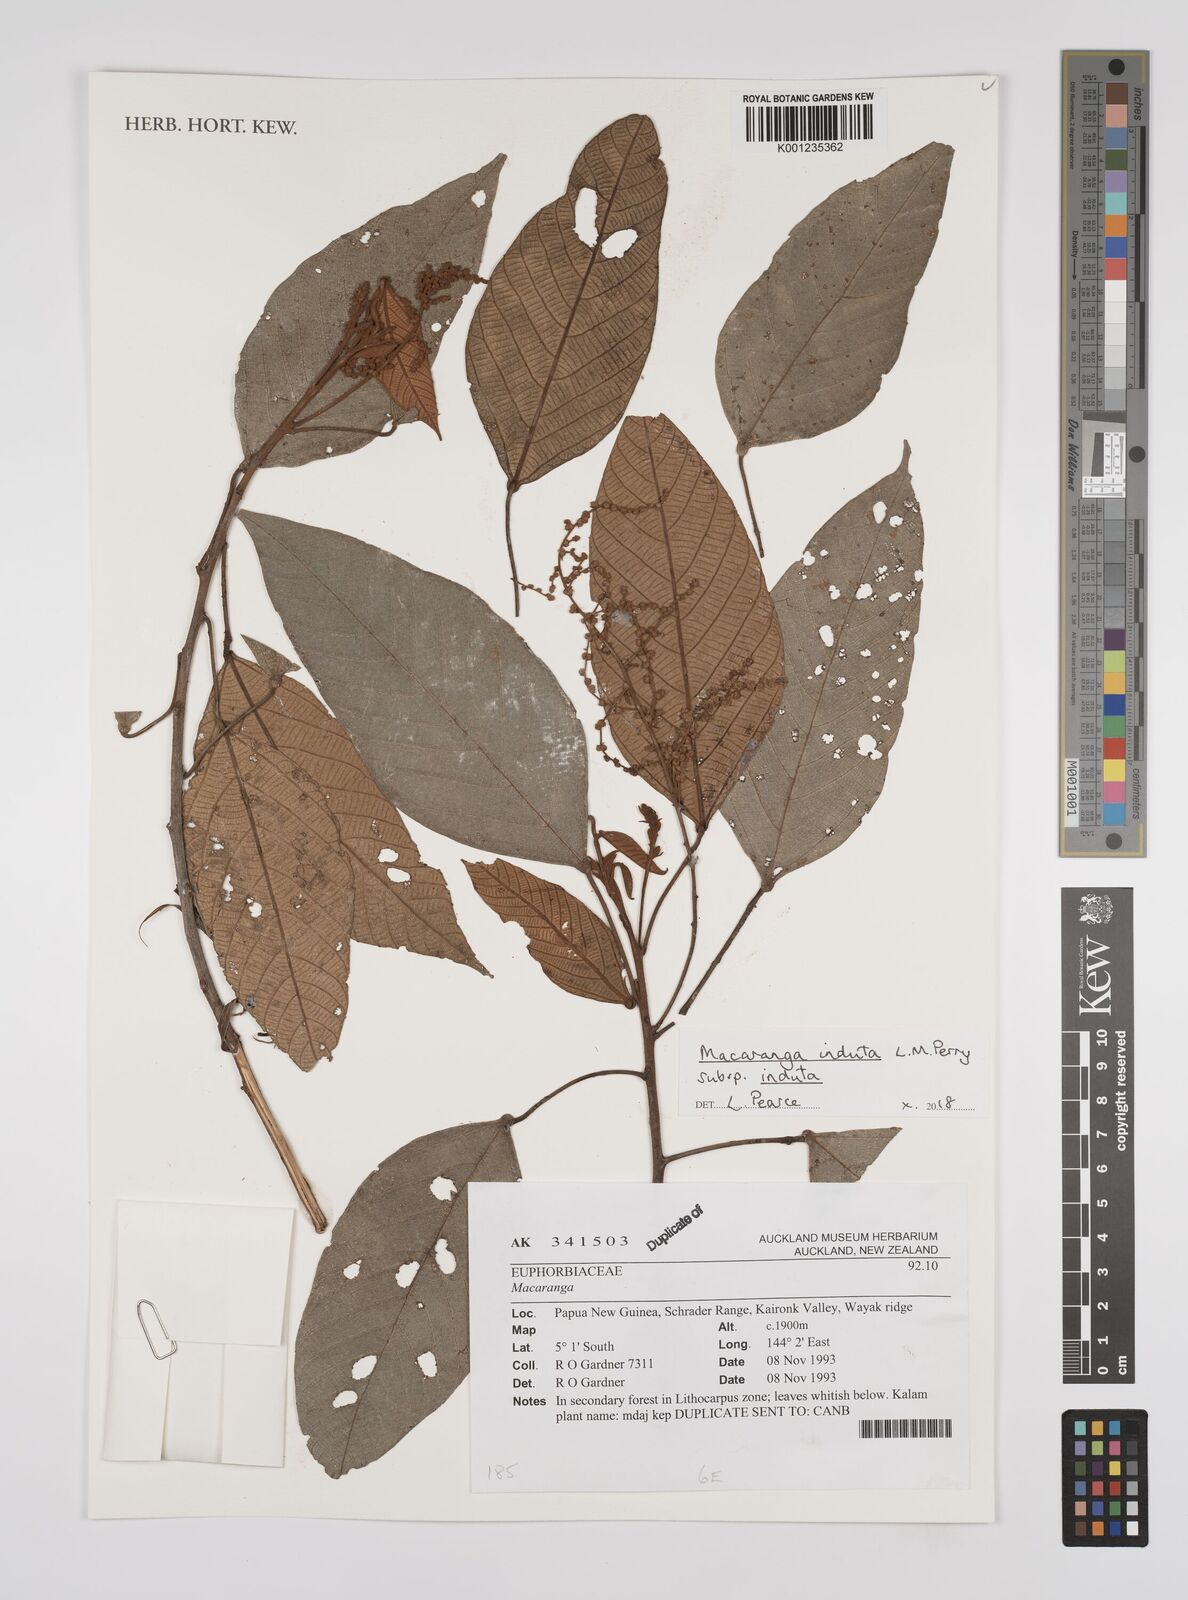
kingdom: Plantae
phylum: Tracheophyta
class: Magnoliopsida
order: Malpighiales
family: Euphorbiaceae
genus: Macaranga
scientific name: Macaranga induta
